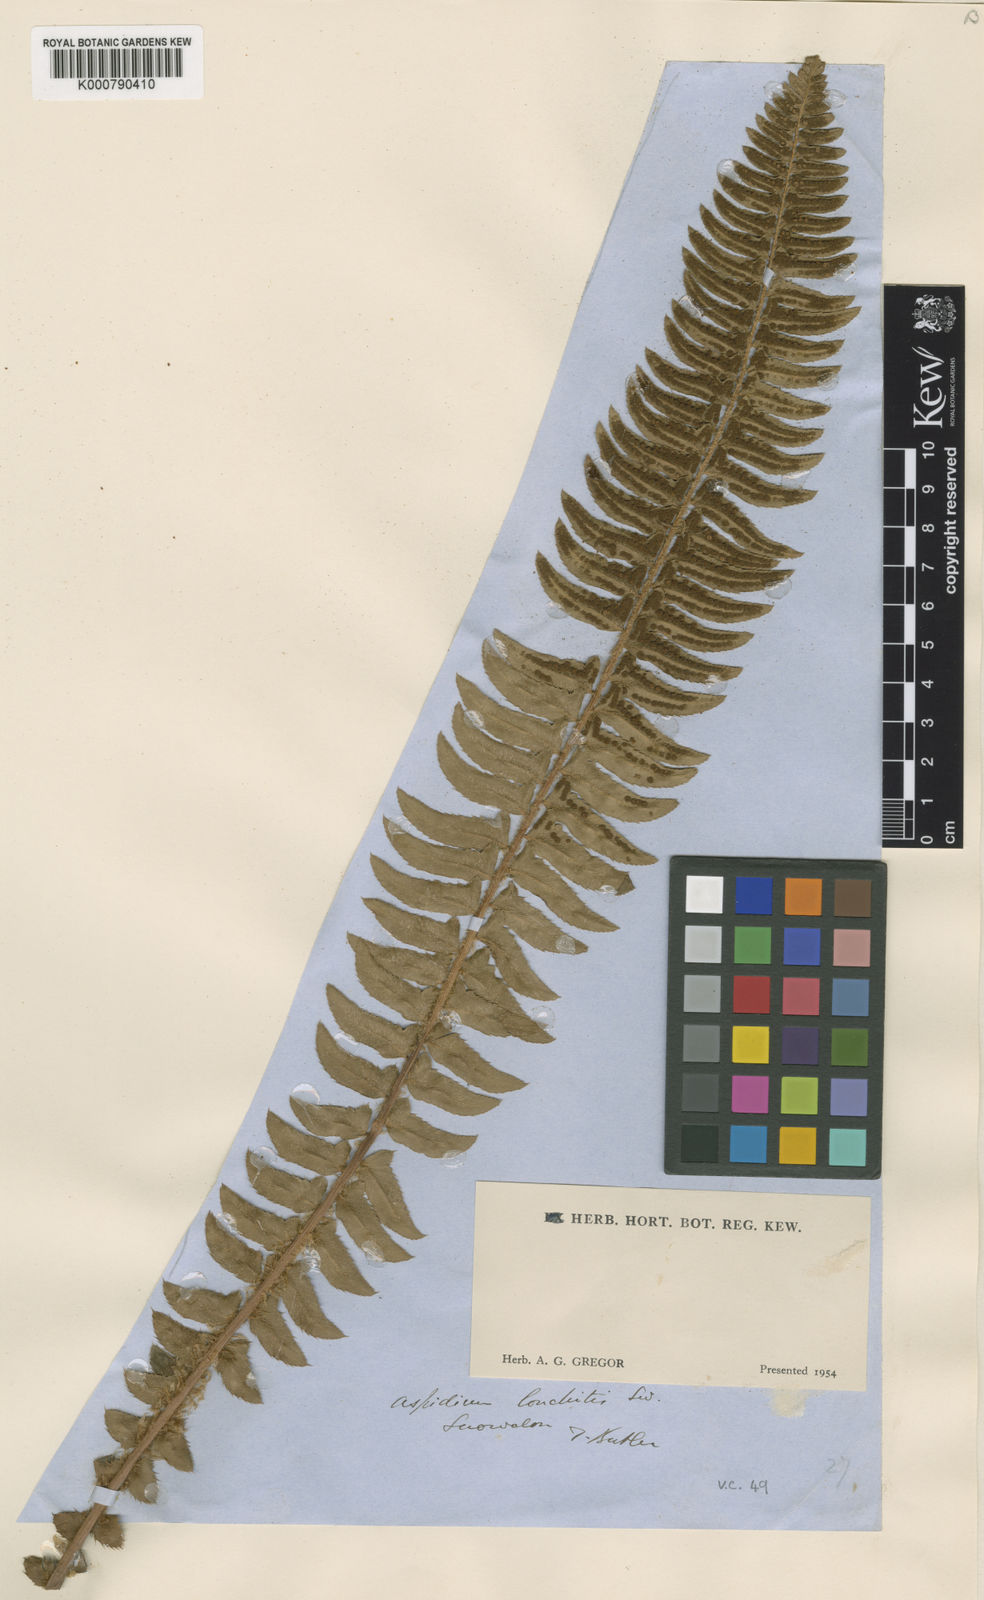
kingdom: Plantae
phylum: Tracheophyta
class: Polypodiopsida
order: Polypodiales
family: Dryopteridaceae
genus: Polystichum
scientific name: Polystichum lonchitis
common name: Holly fern
